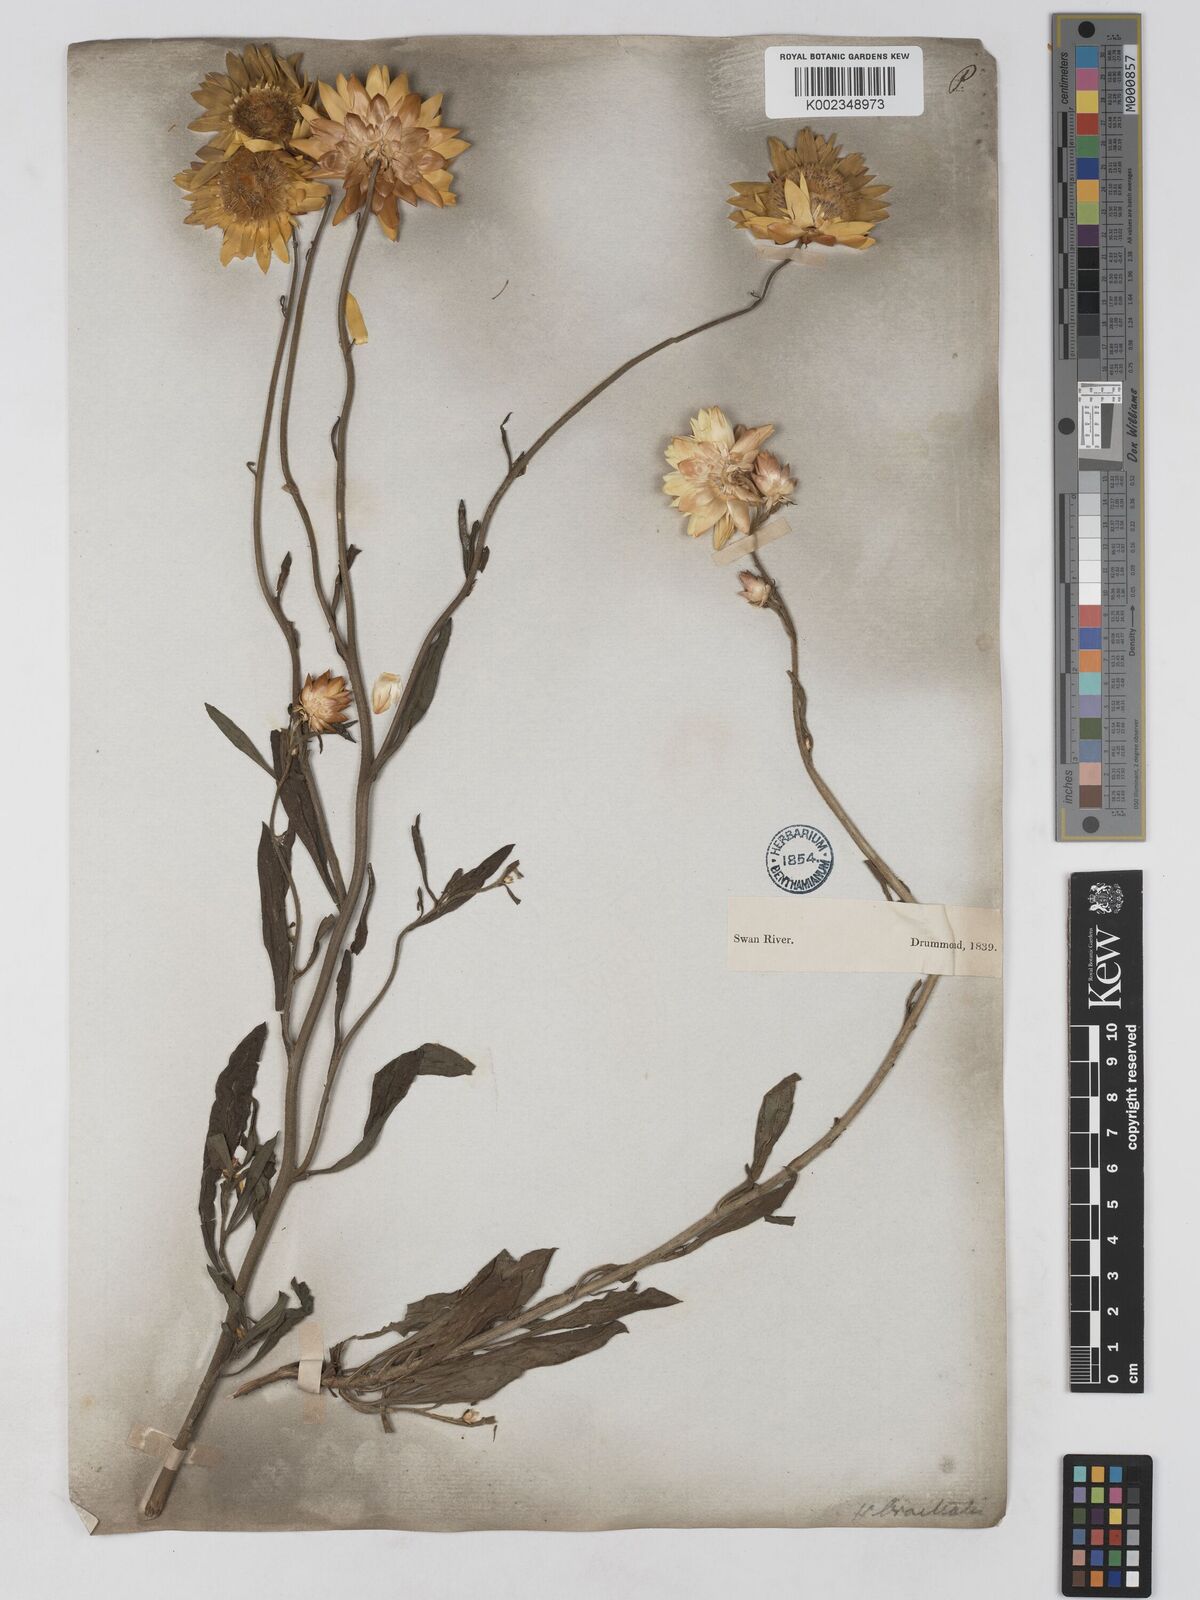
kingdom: Plantae
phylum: Tracheophyta
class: Magnoliopsida
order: Asterales
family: Asteraceae
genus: Xerochrysum
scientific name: Xerochrysum bracteatum
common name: Bracted strawflower
